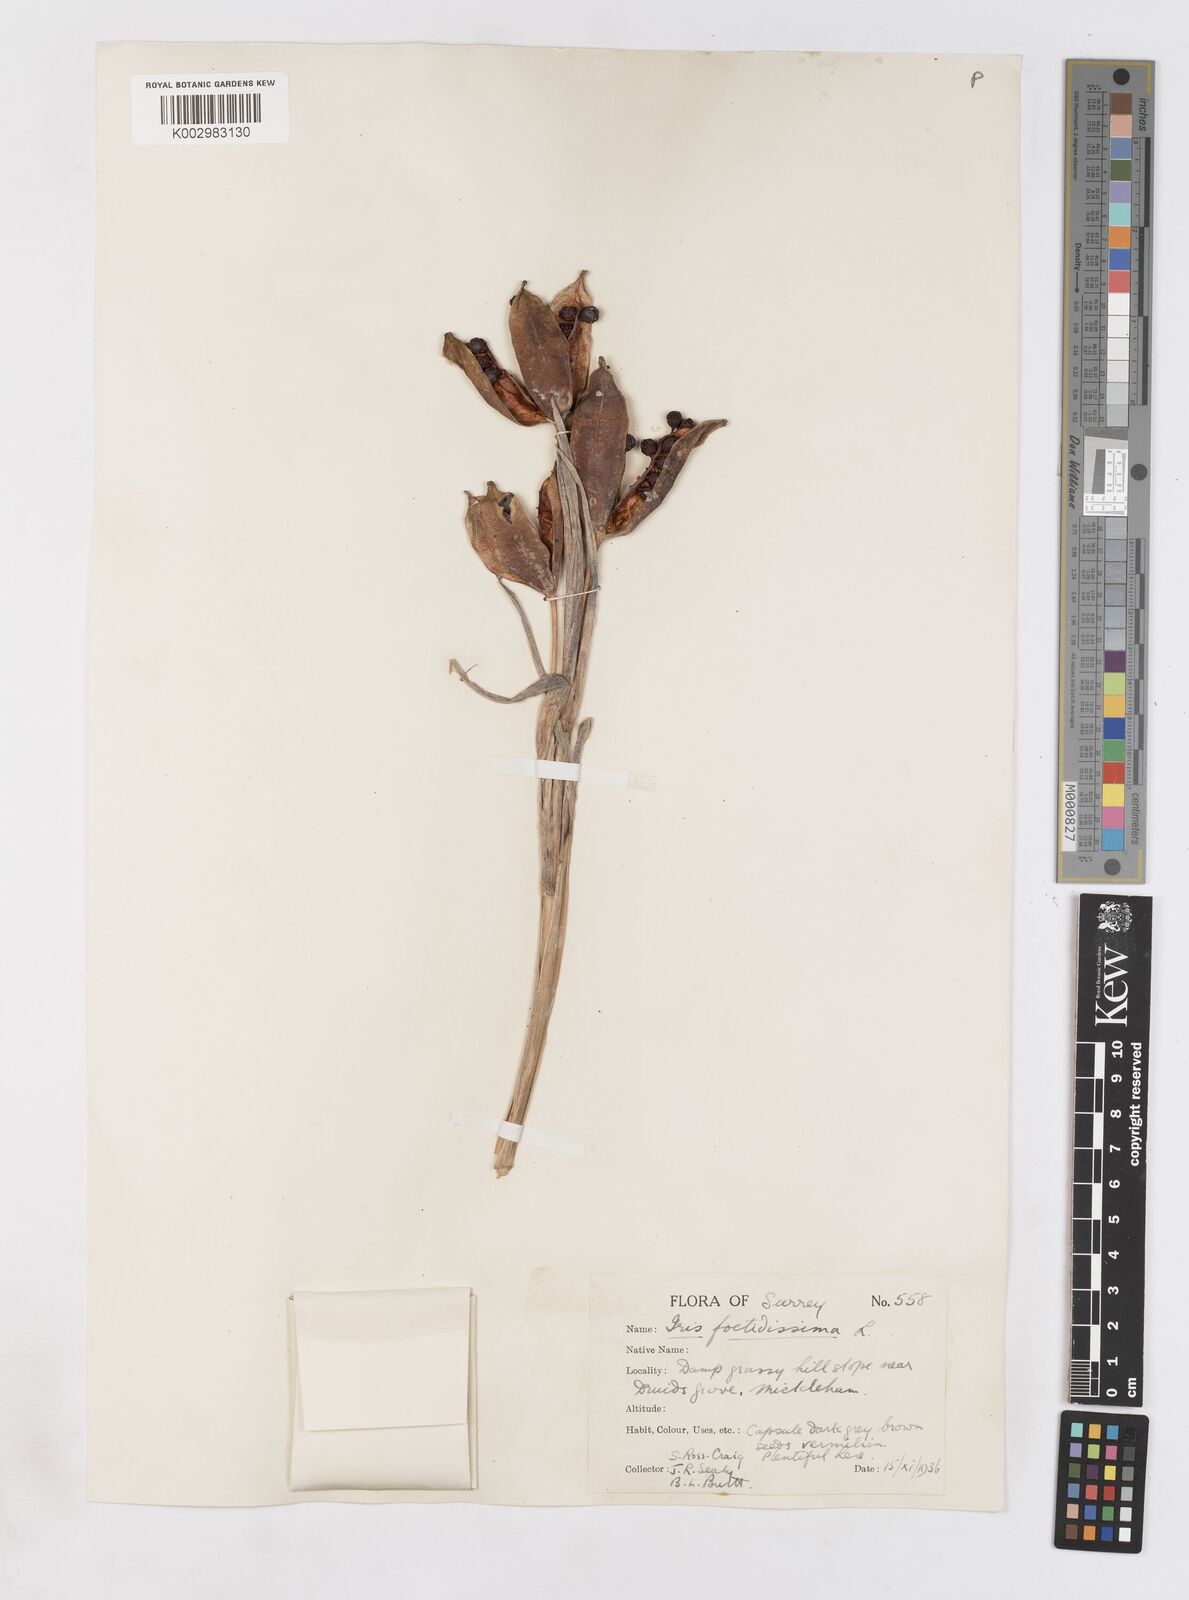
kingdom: Plantae
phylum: Tracheophyta
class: Liliopsida
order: Asparagales
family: Iridaceae
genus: Iris
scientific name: Iris foetidissima
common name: Stinking iris
